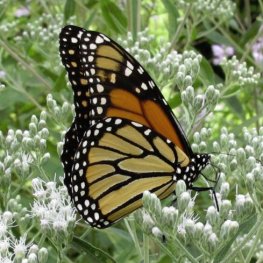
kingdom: Animalia
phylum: Arthropoda
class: Insecta
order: Lepidoptera
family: Nymphalidae
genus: Danaus
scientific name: Danaus plexippus
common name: Monarch
